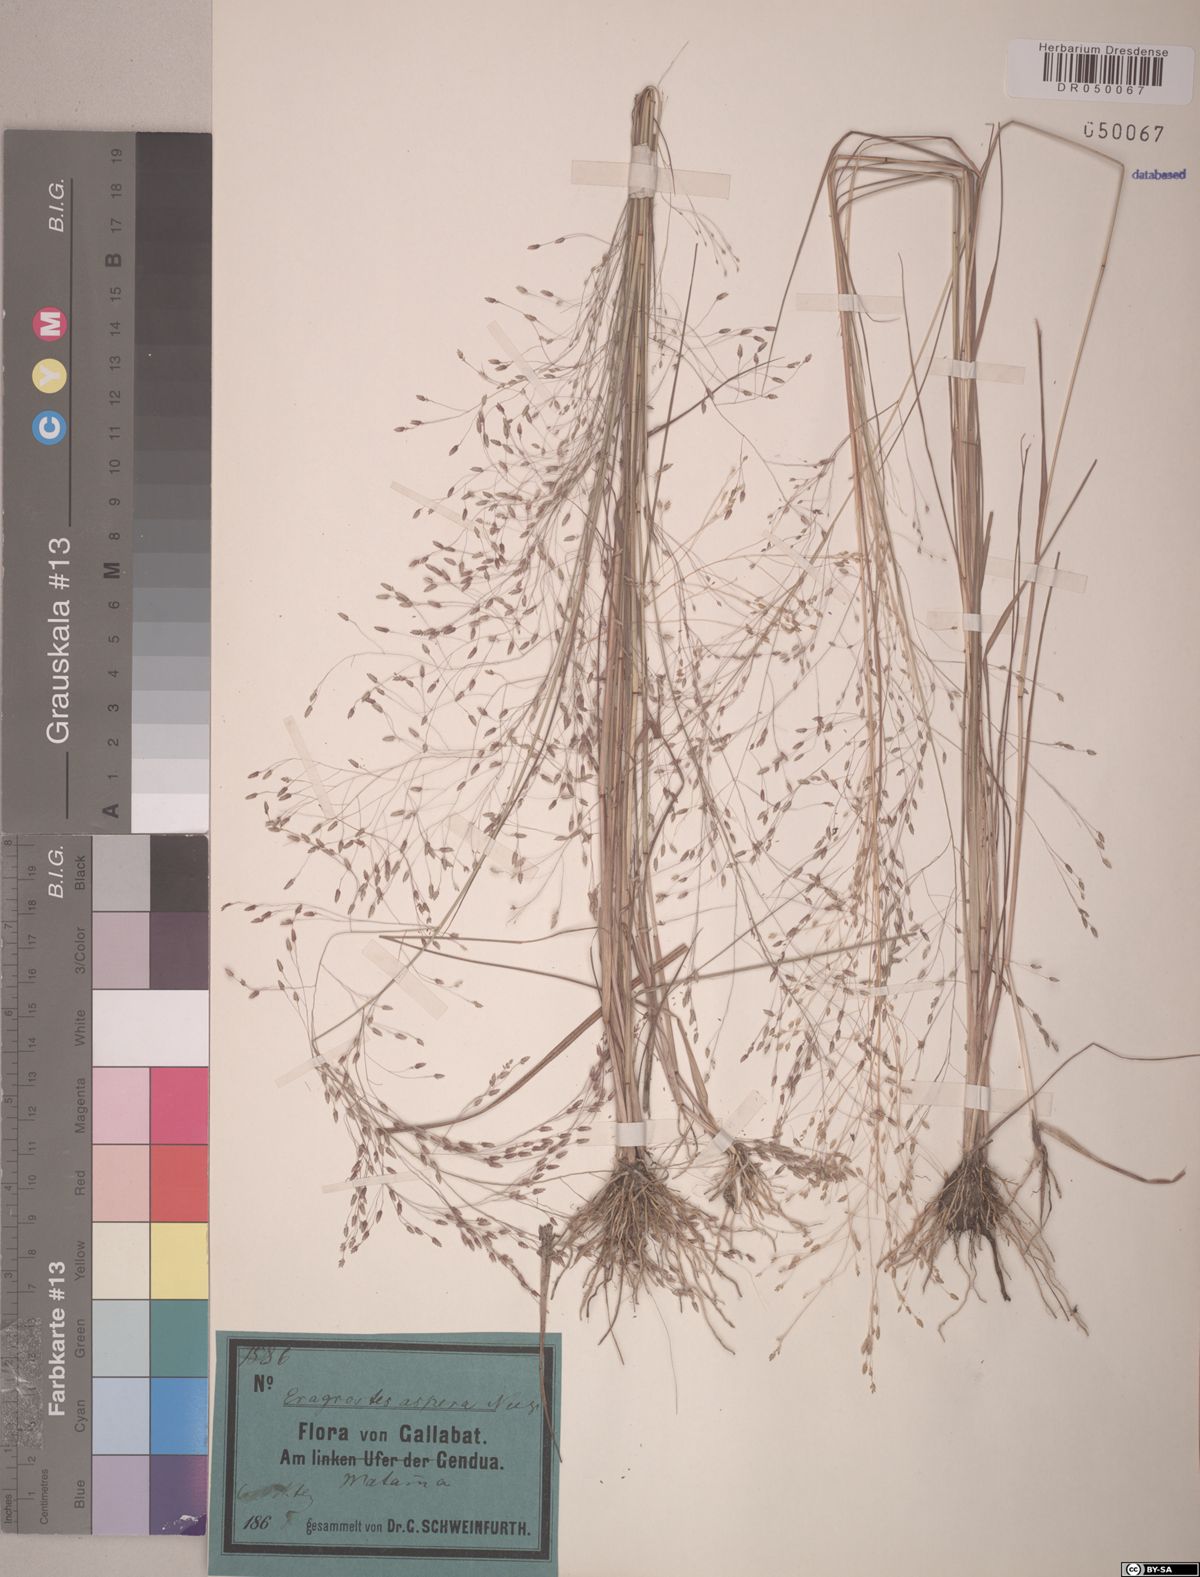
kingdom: Plantae
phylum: Tracheophyta
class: Liliopsida
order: Poales
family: Poaceae
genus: Eragrostis
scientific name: Eragrostis aspera
